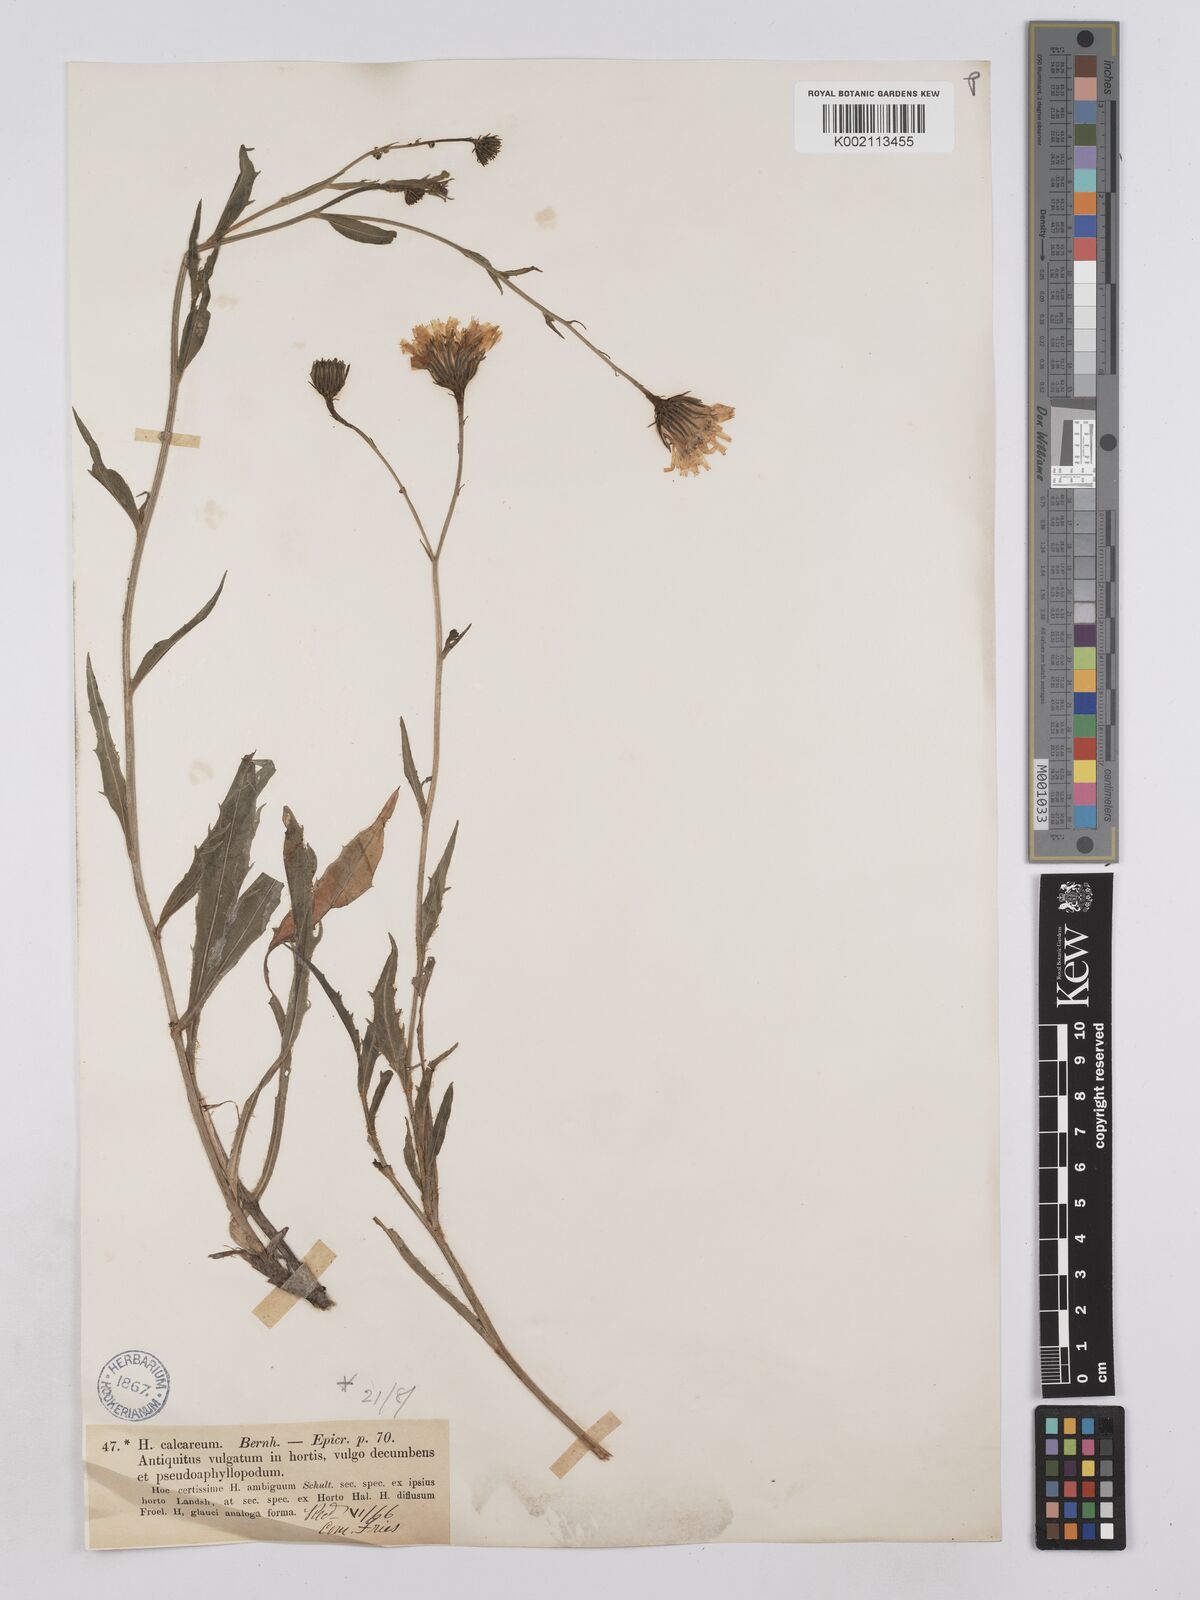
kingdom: Plantae
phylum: Tracheophyta
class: Magnoliopsida
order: Asterales
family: Asteraceae
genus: Hieracium
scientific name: Hieracium calcareum
